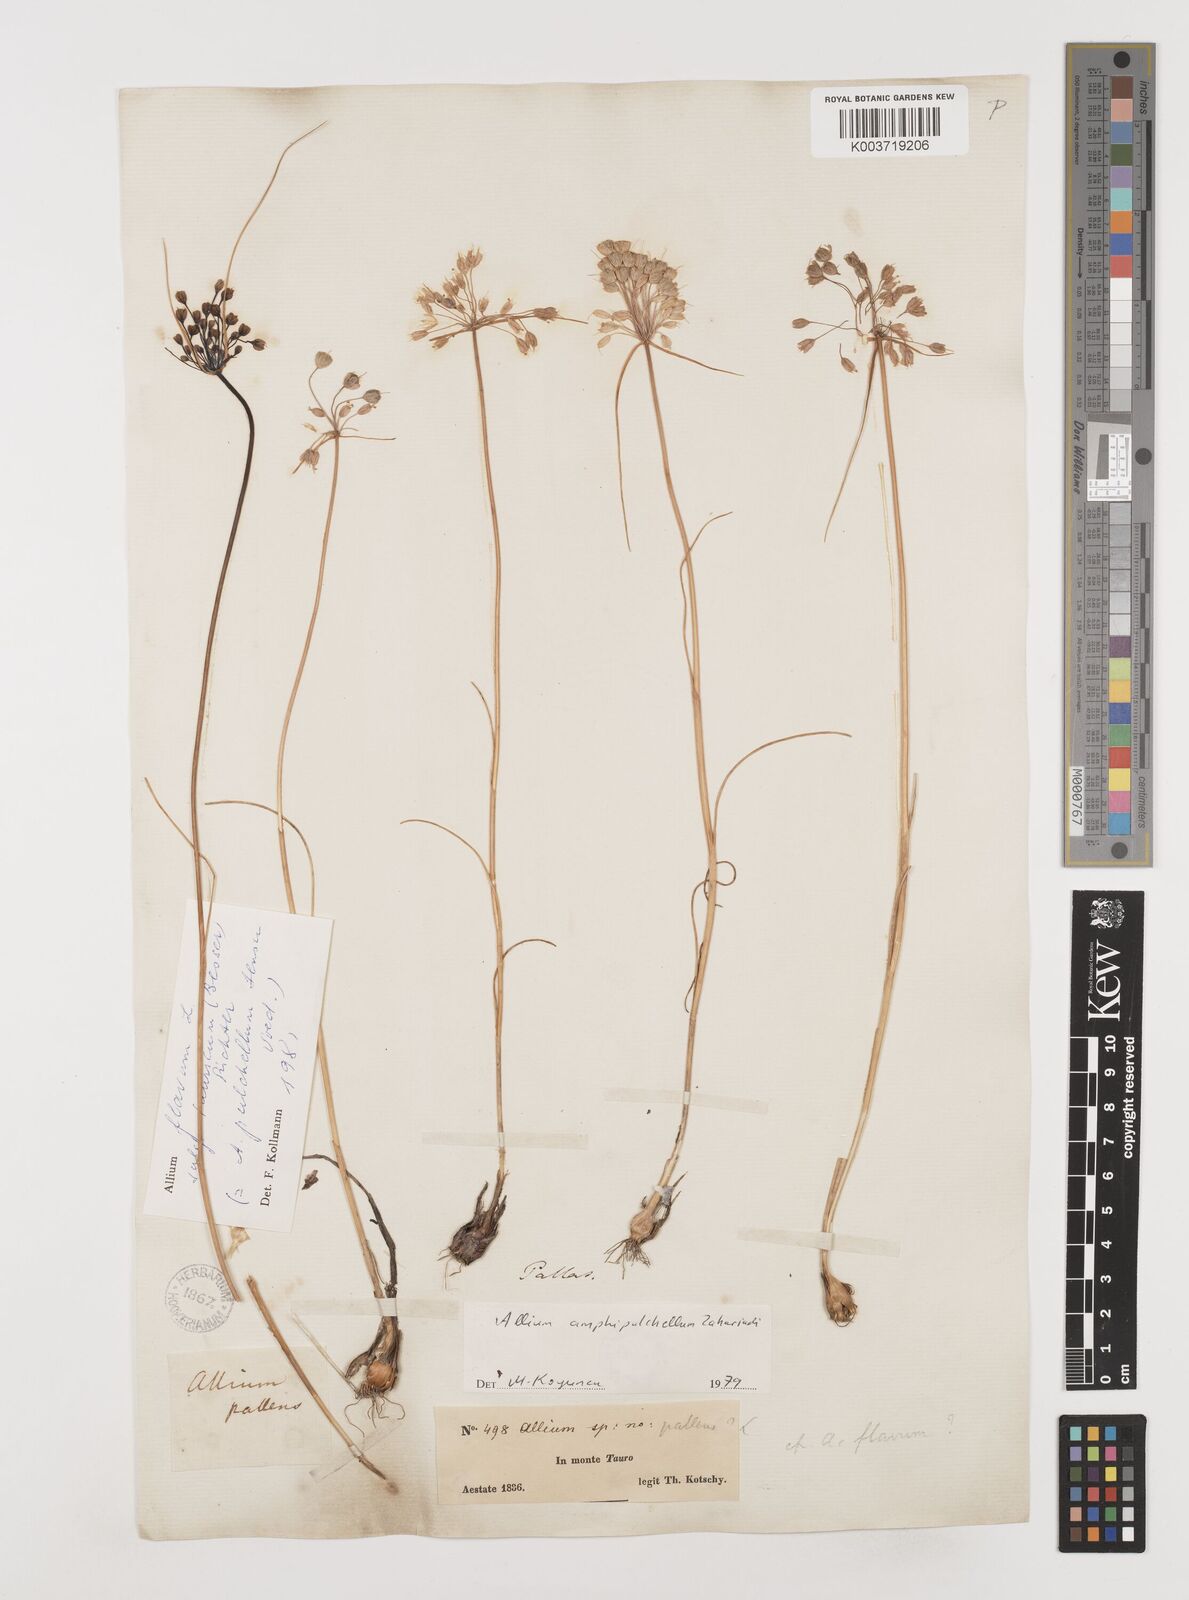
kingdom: Plantae
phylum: Tracheophyta
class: Liliopsida
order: Asparagales
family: Amaryllidaceae
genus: Allium
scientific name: Allium flavum
